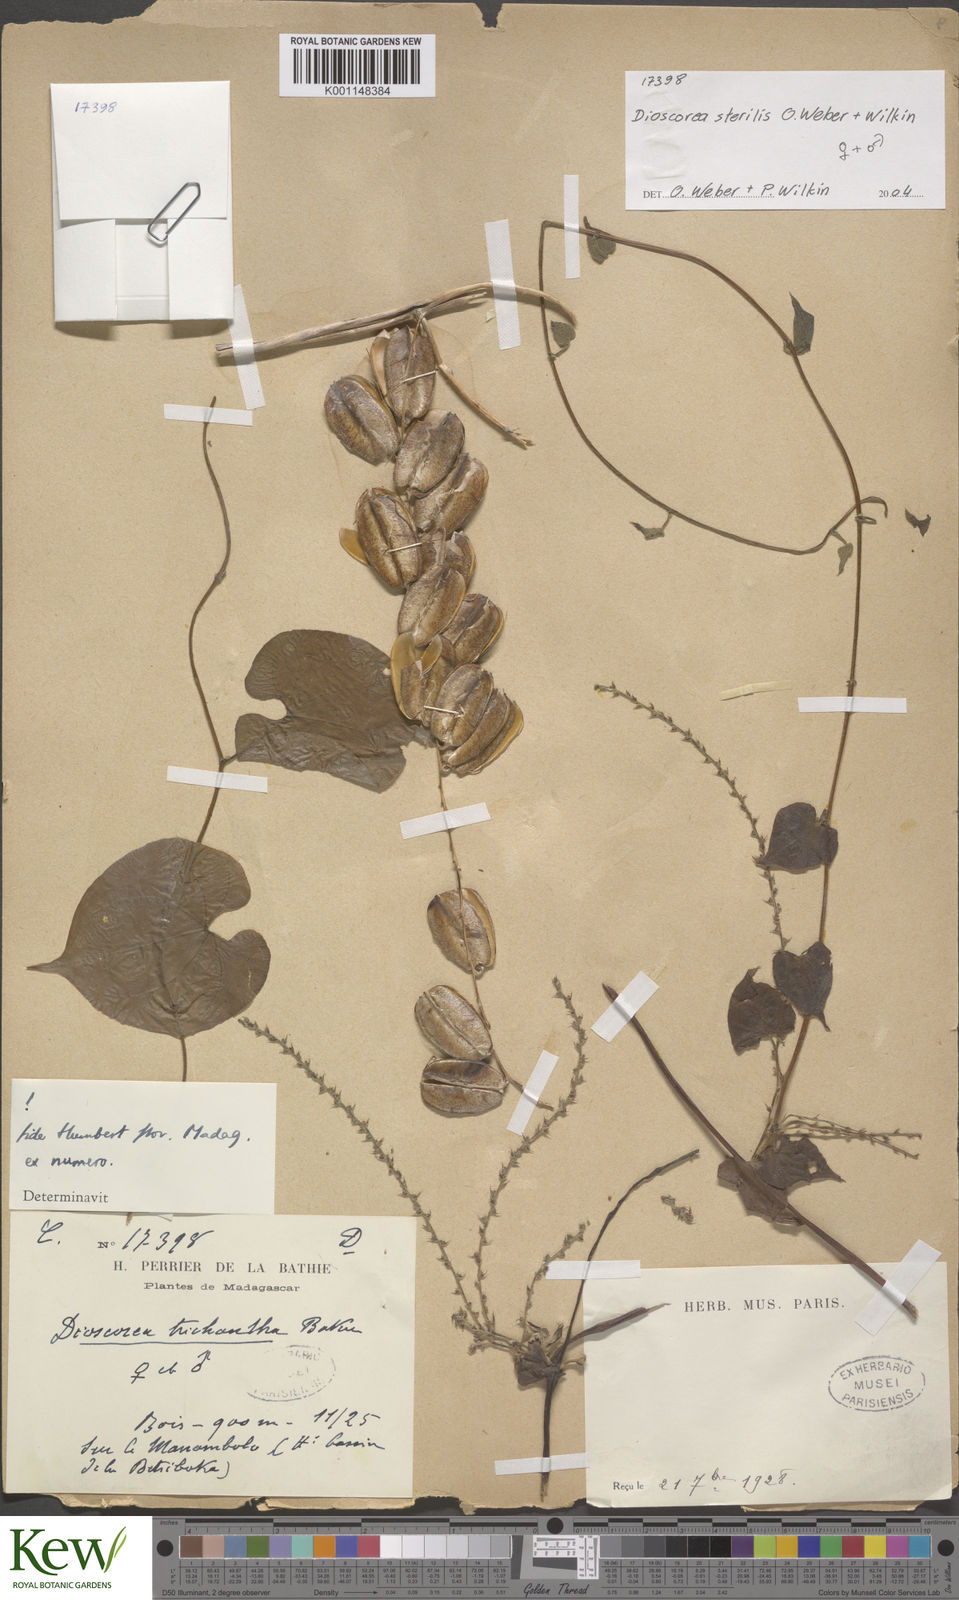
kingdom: Plantae
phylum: Tracheophyta
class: Liliopsida
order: Dioscoreales
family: Dioscoreaceae
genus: Dioscorea
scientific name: Dioscorea sterilis
